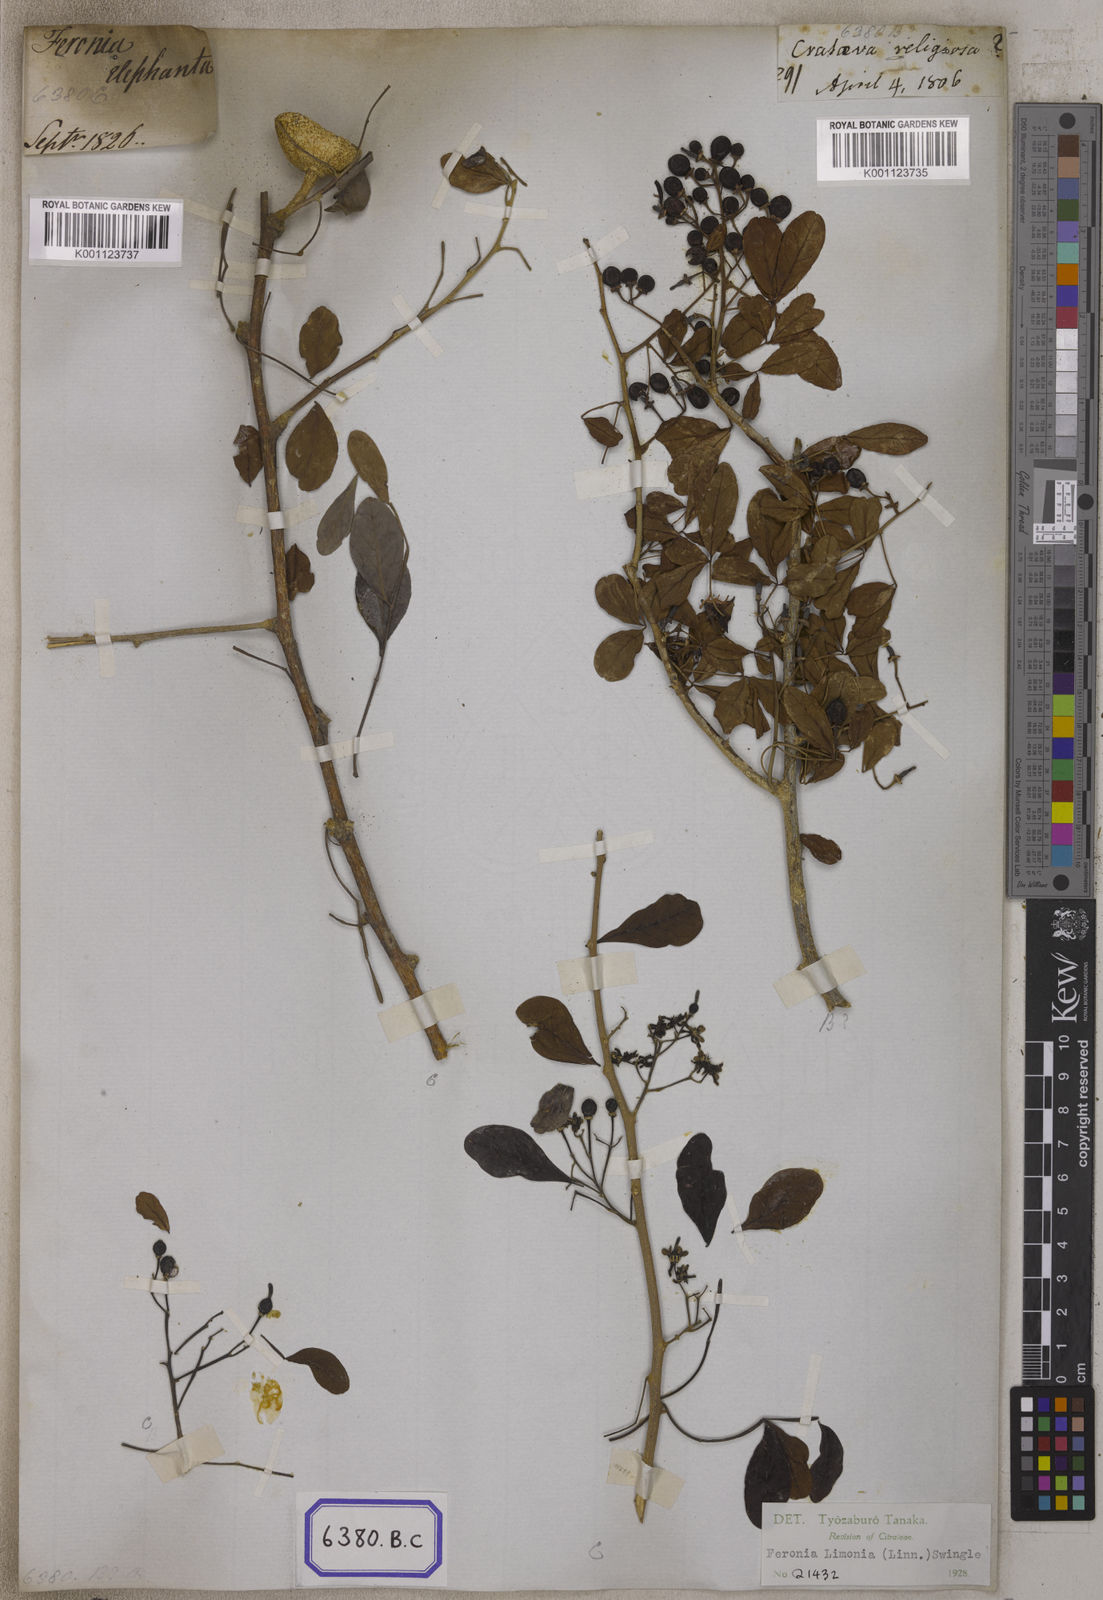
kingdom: Plantae
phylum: Tracheophyta
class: Magnoliopsida
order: Sapindales
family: Rutaceae
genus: Limonia
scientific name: Limonia acidissima
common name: Elephant apple
